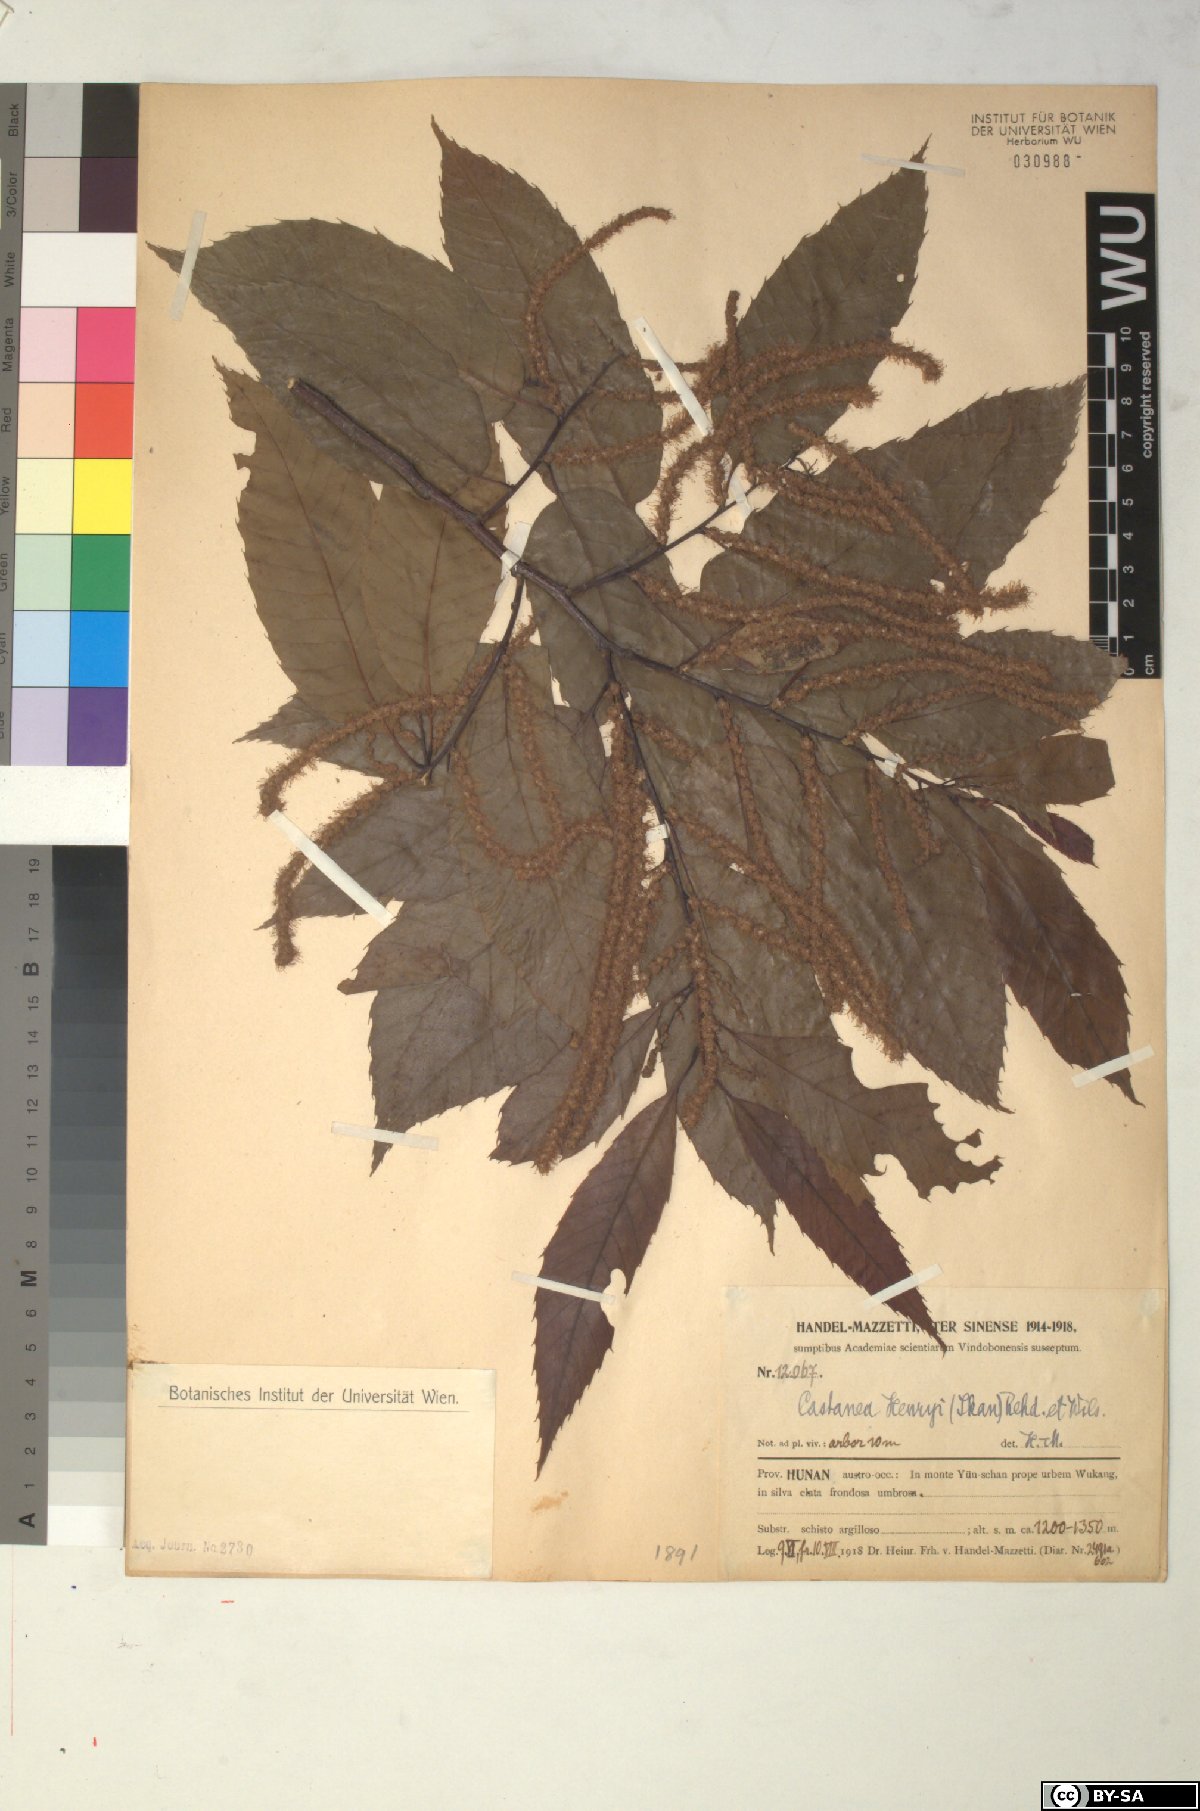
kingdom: Plantae
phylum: Tracheophyta
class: Magnoliopsida
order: Fagales
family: Fagaceae
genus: Castanea
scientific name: Castanea henryi
